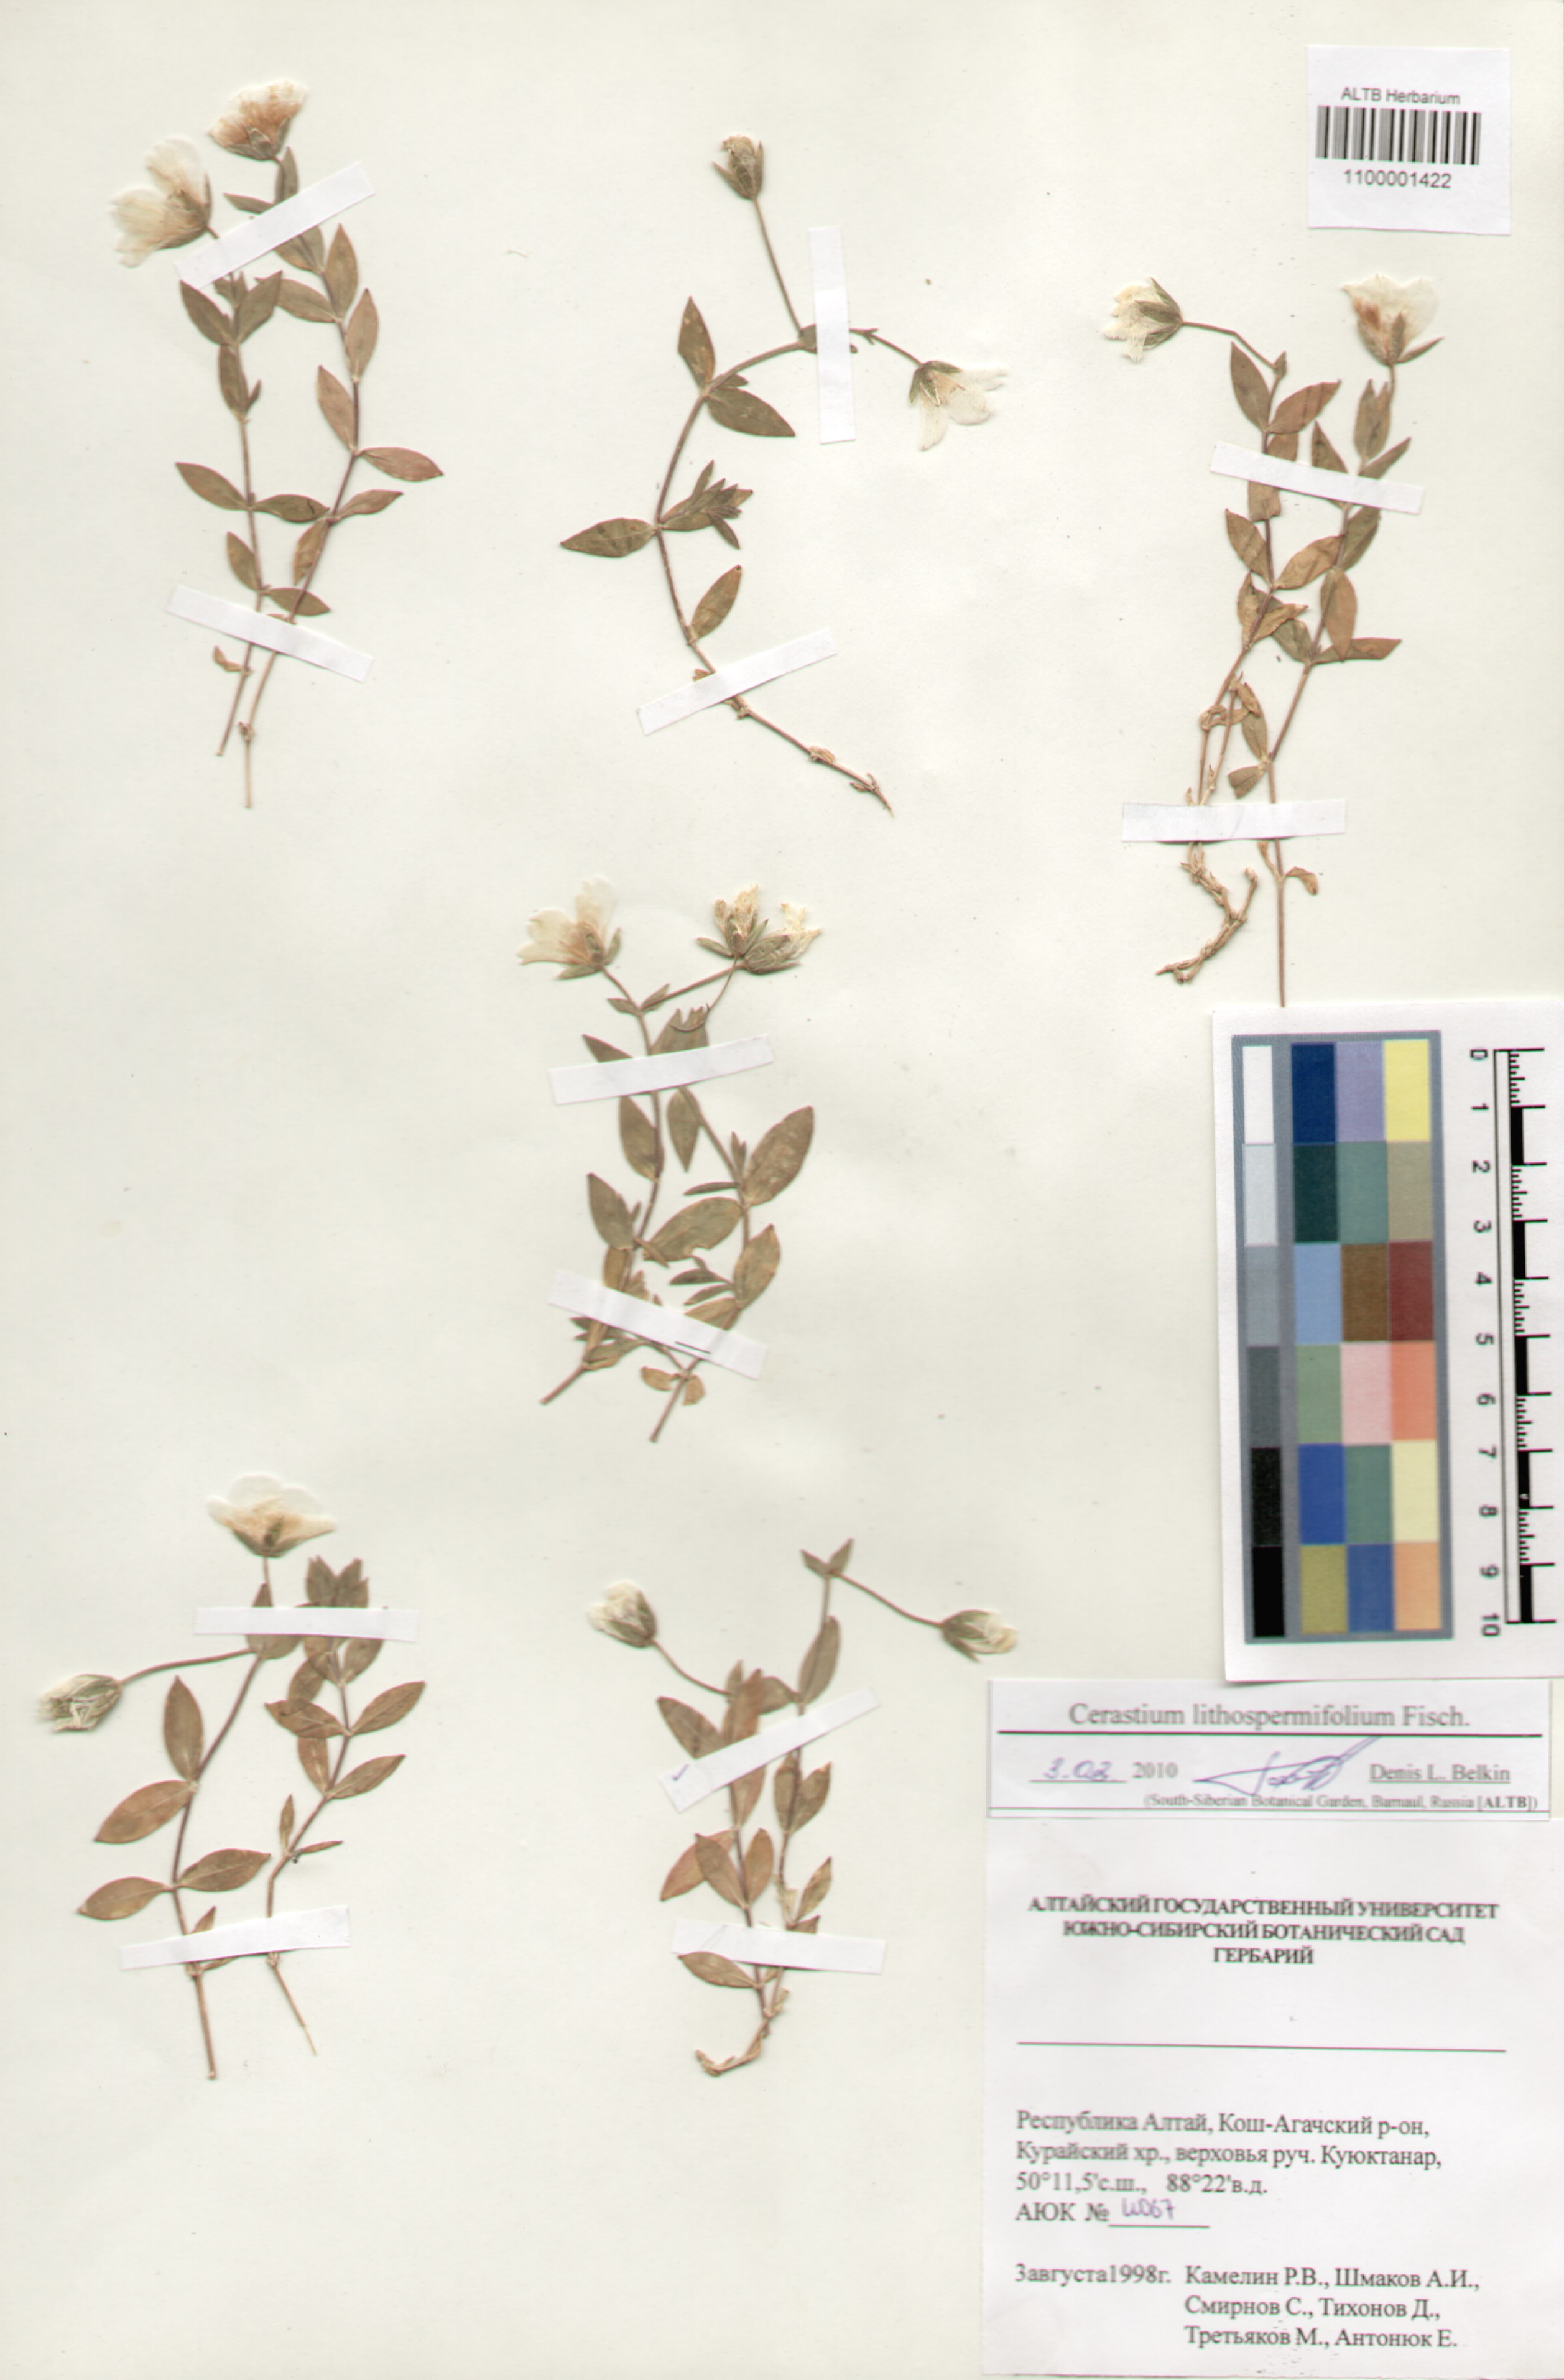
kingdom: Plantae
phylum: Tracheophyta
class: Magnoliopsida
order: Caryophyllales
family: Caryophyllaceae
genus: Cerastium
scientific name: Cerastium lithospermifolium
